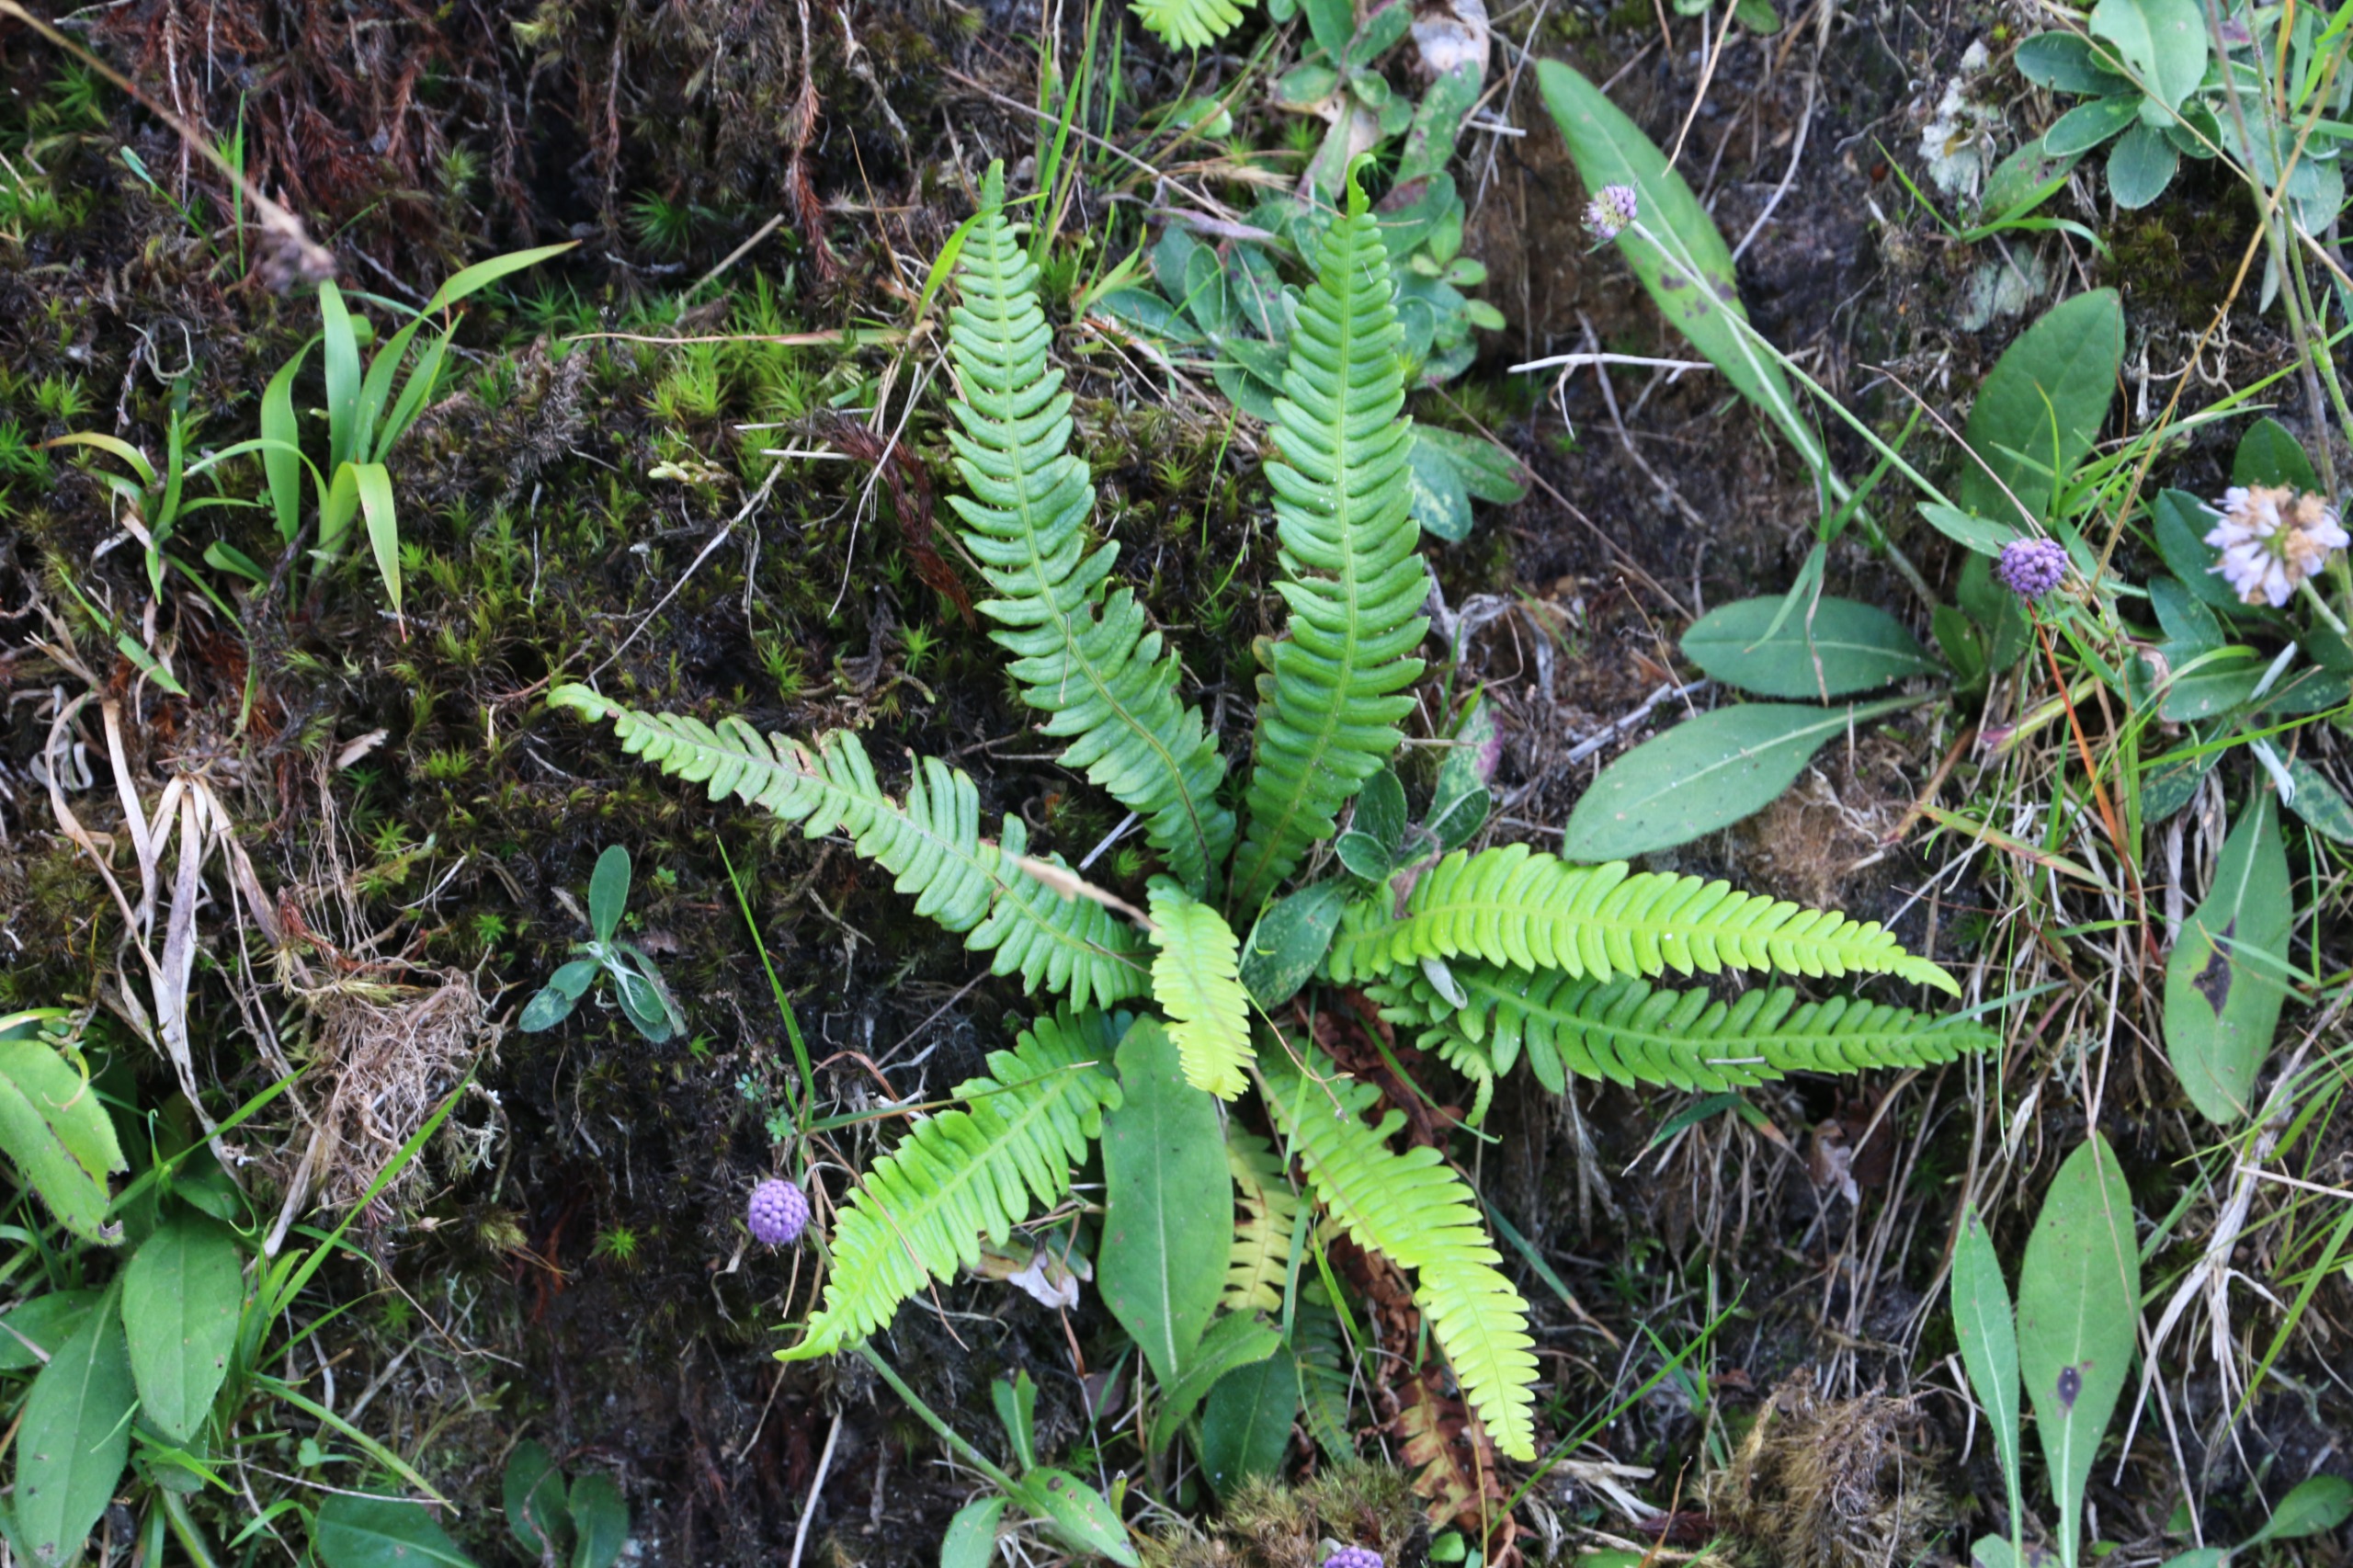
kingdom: Plantae
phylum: Tracheophyta
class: Polypodiopsida
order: Polypodiales
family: Blechnaceae
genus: Struthiopteris
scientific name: Struthiopteris spicant
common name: Kambregne
